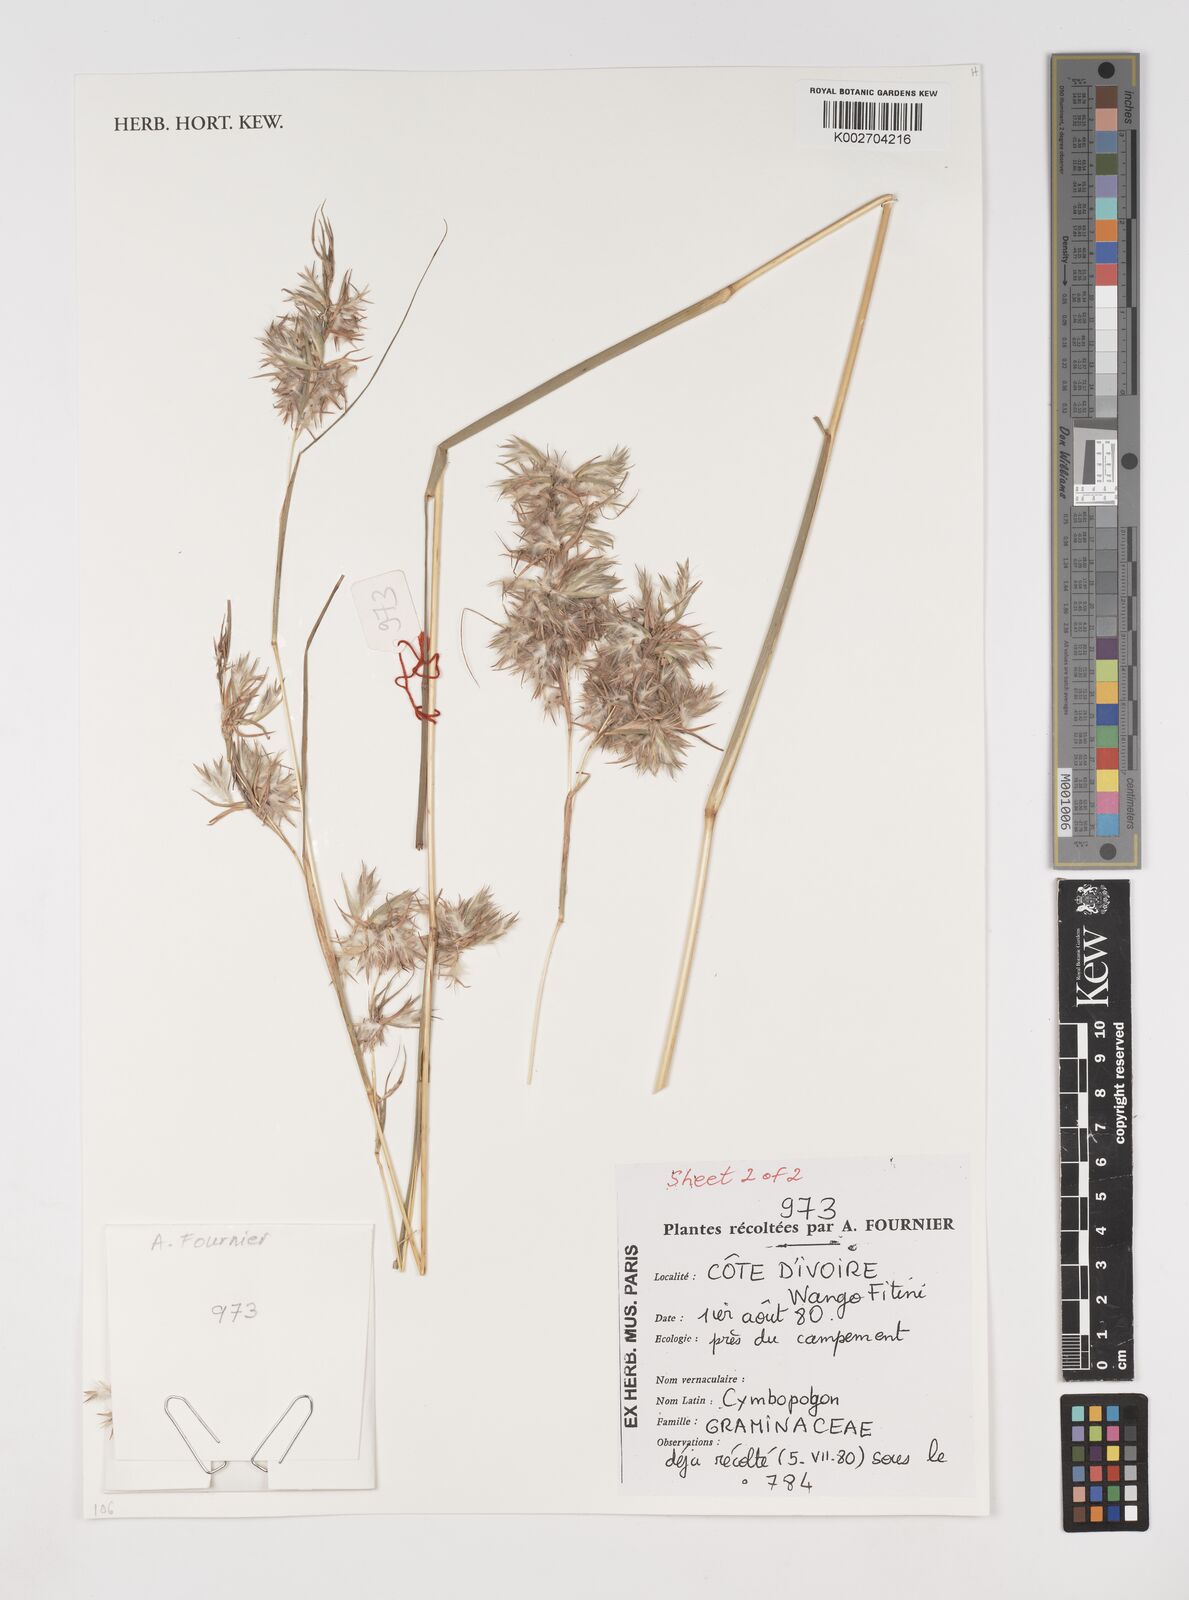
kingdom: Plantae
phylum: Tracheophyta
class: Liliopsida
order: Poales
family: Poaceae
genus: Cymbopogon
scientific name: Cymbopogon schoenanthus
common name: Geranium grass
